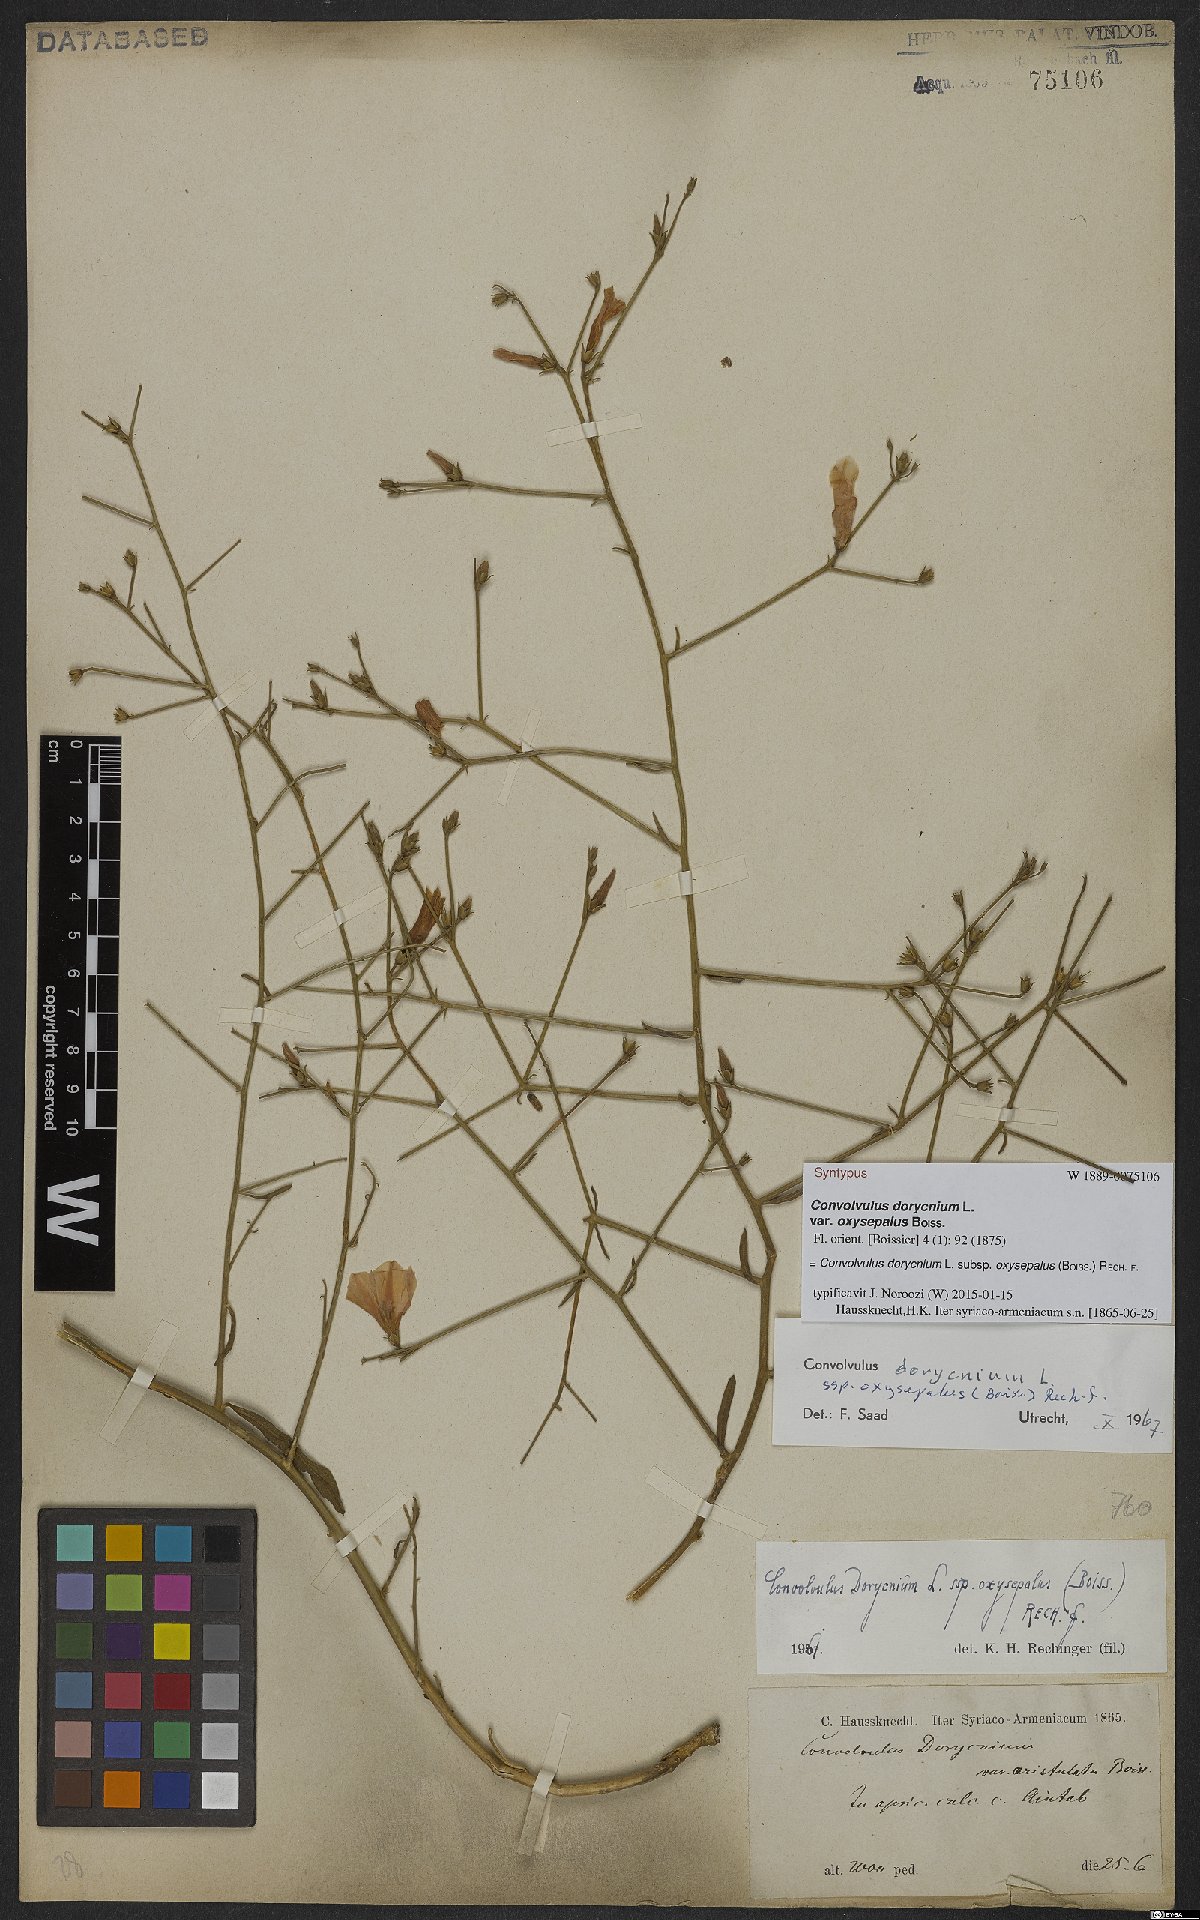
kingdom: Plantae
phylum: Tracheophyta
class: Magnoliopsida
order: Solanales
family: Convolvulaceae
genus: Convolvulus
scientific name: Convolvulus dorycnium
